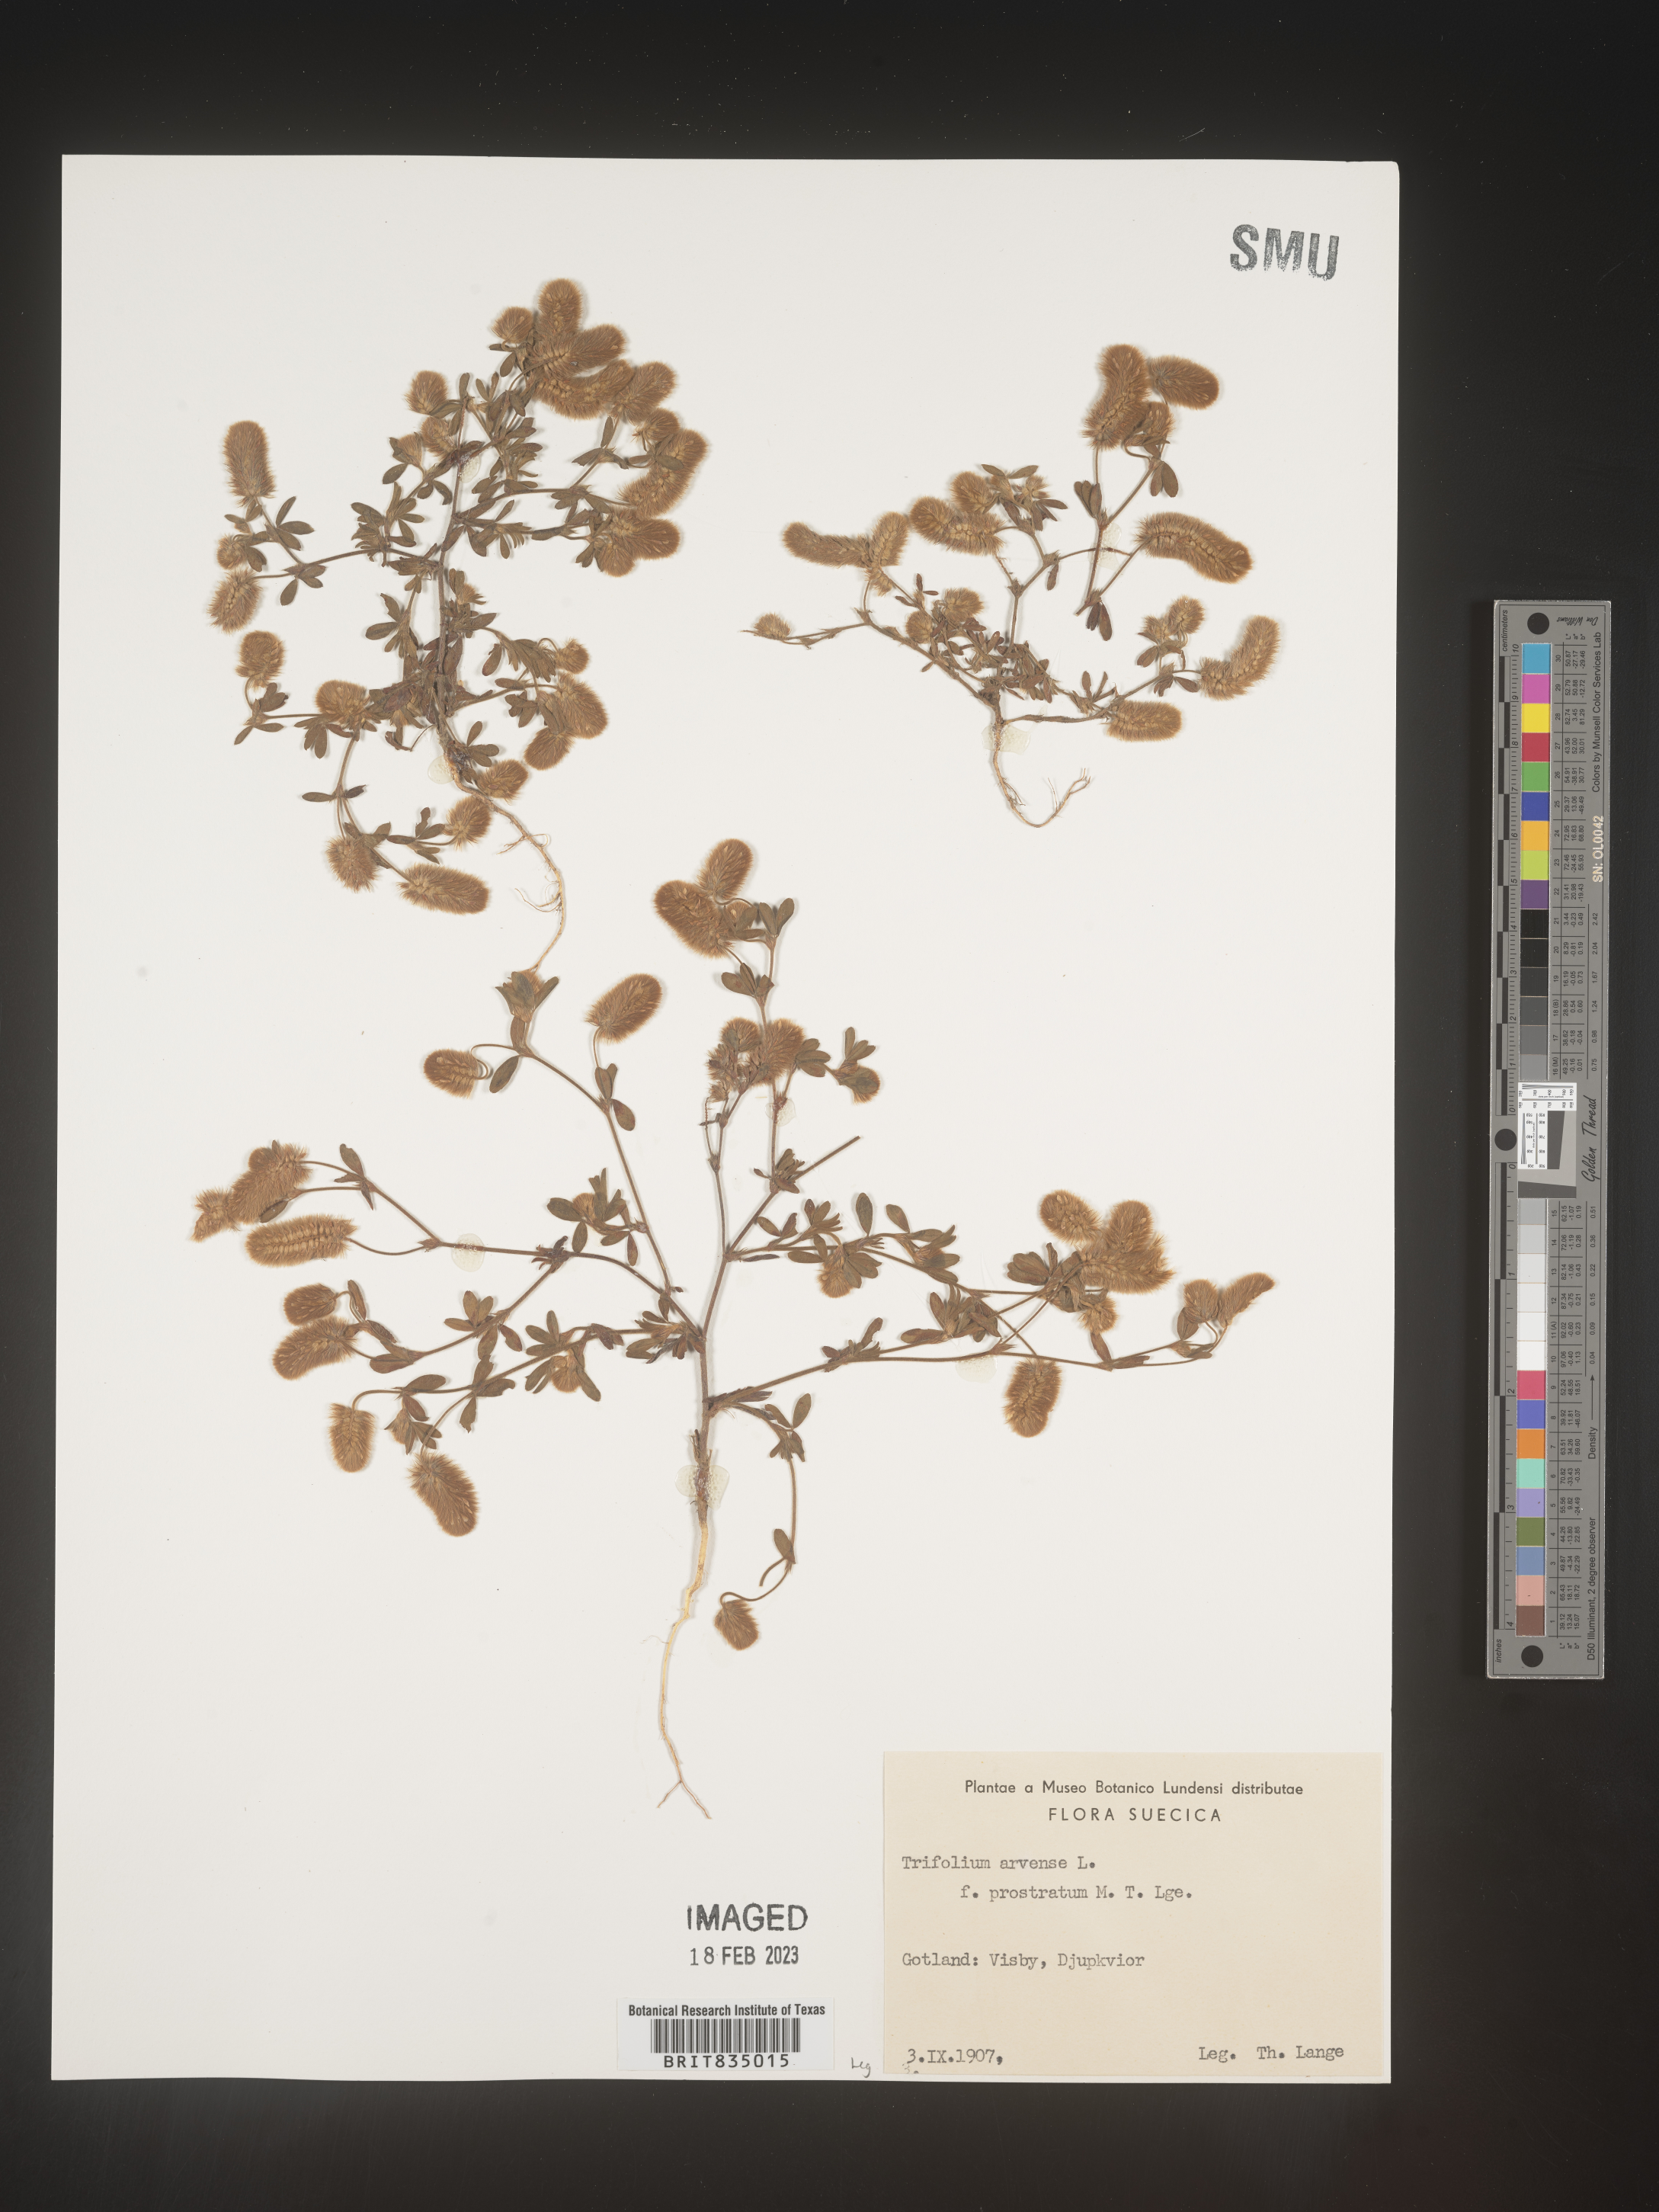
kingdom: Plantae
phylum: Tracheophyta
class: Magnoliopsida
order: Fabales
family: Fabaceae
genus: Trifolium
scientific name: Trifolium
